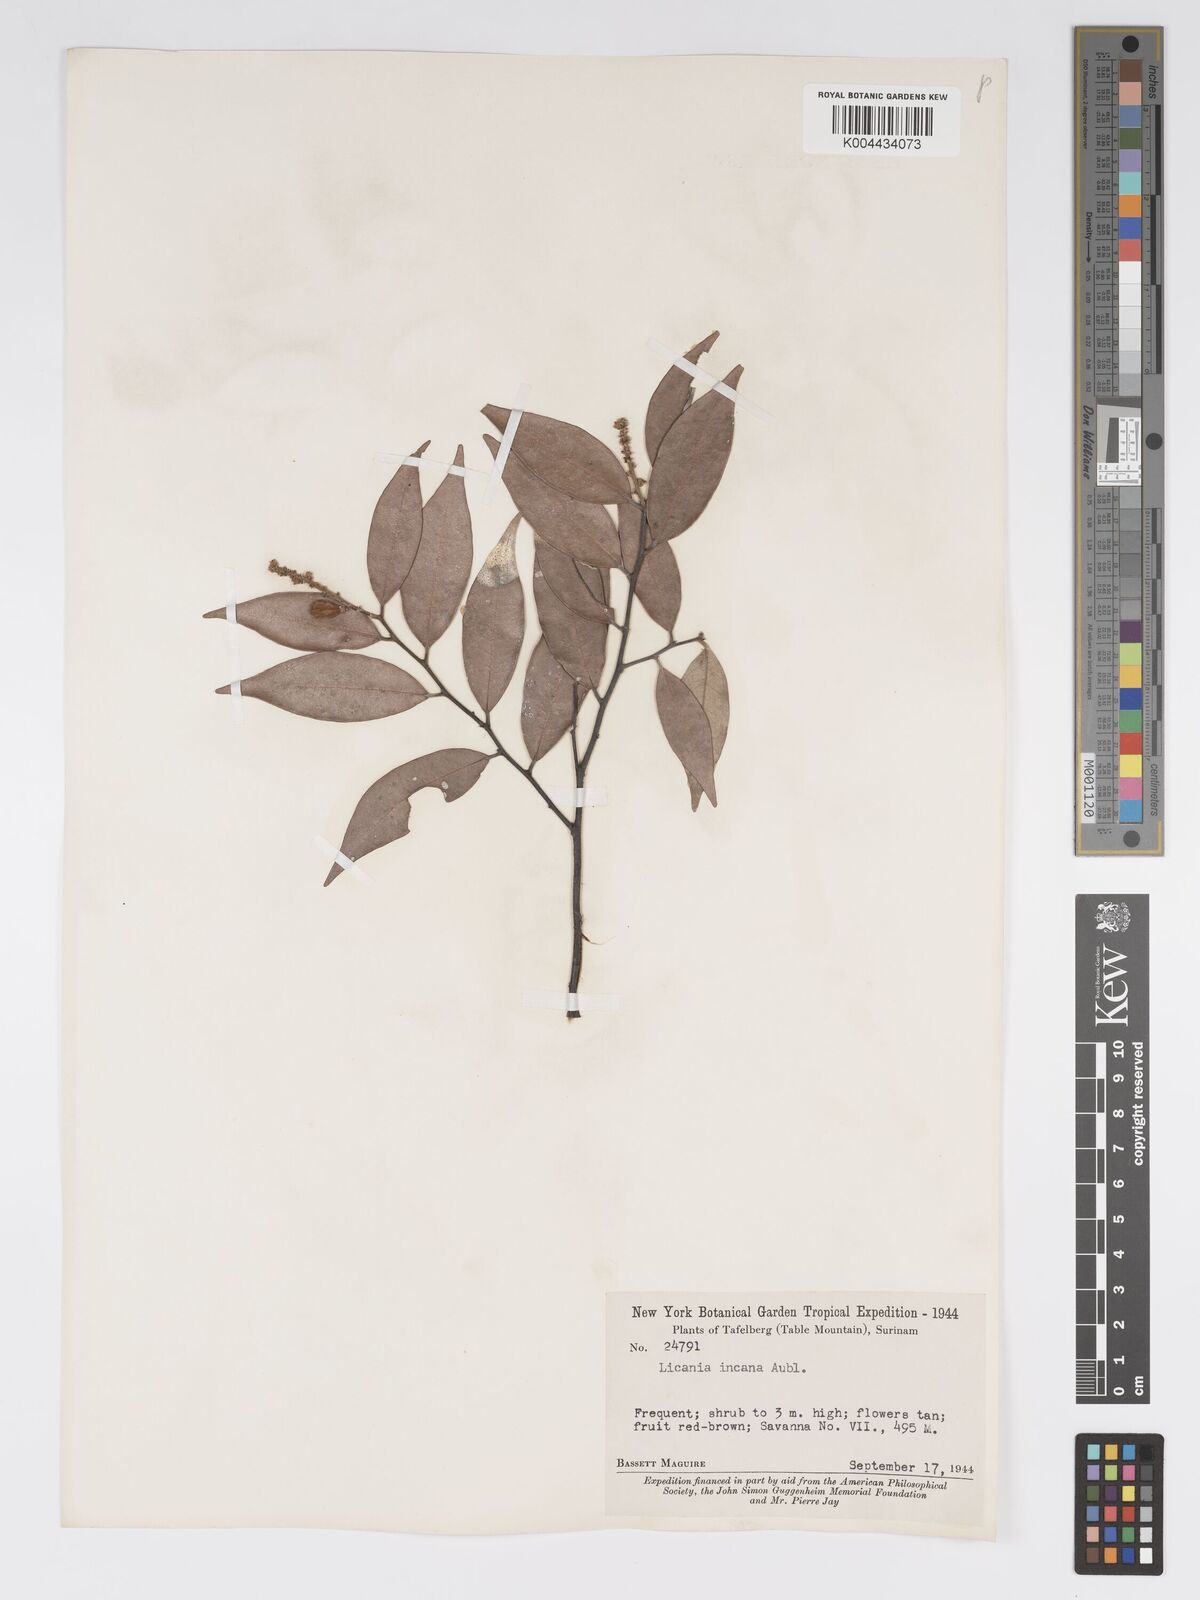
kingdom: Plantae
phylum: Tracheophyta
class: Magnoliopsida
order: Malpighiales
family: Chrysobalanaceae
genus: Licania
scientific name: Licania incana
